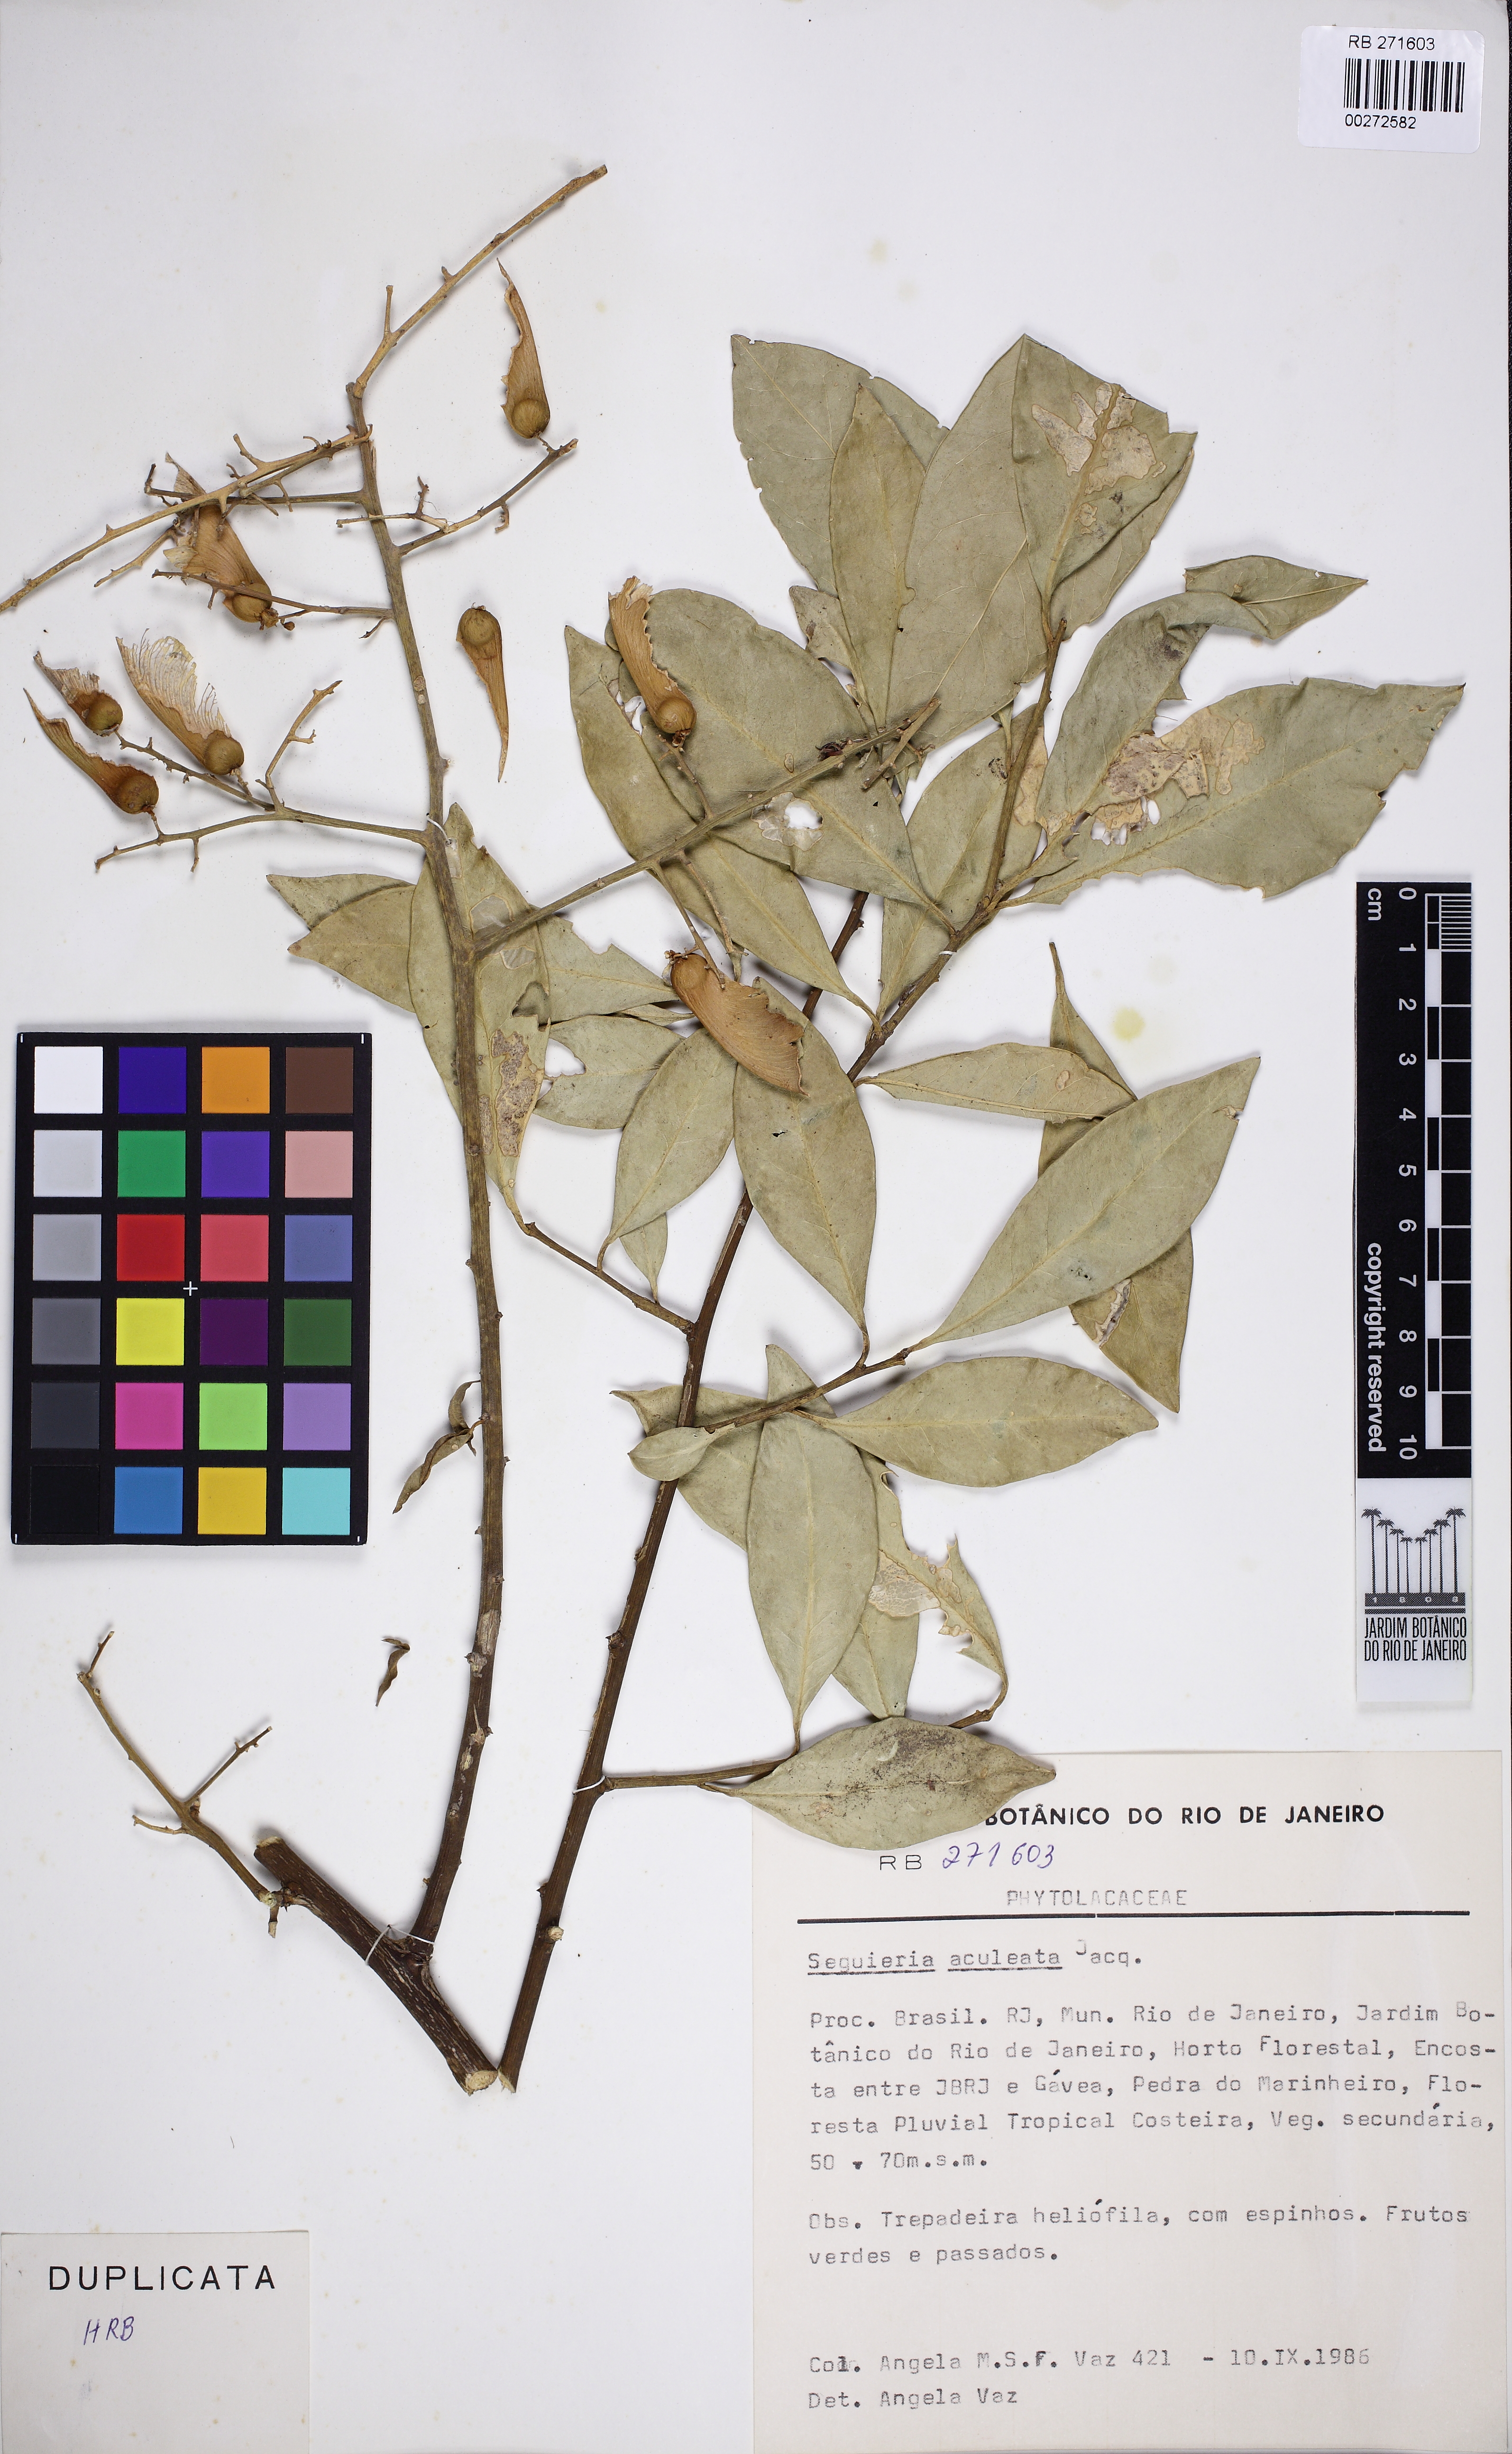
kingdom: Plantae
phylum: Tracheophyta
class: Magnoliopsida
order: Caryophyllales
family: Phytolaccaceae
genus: Seguieria
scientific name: Seguieria aculeata
